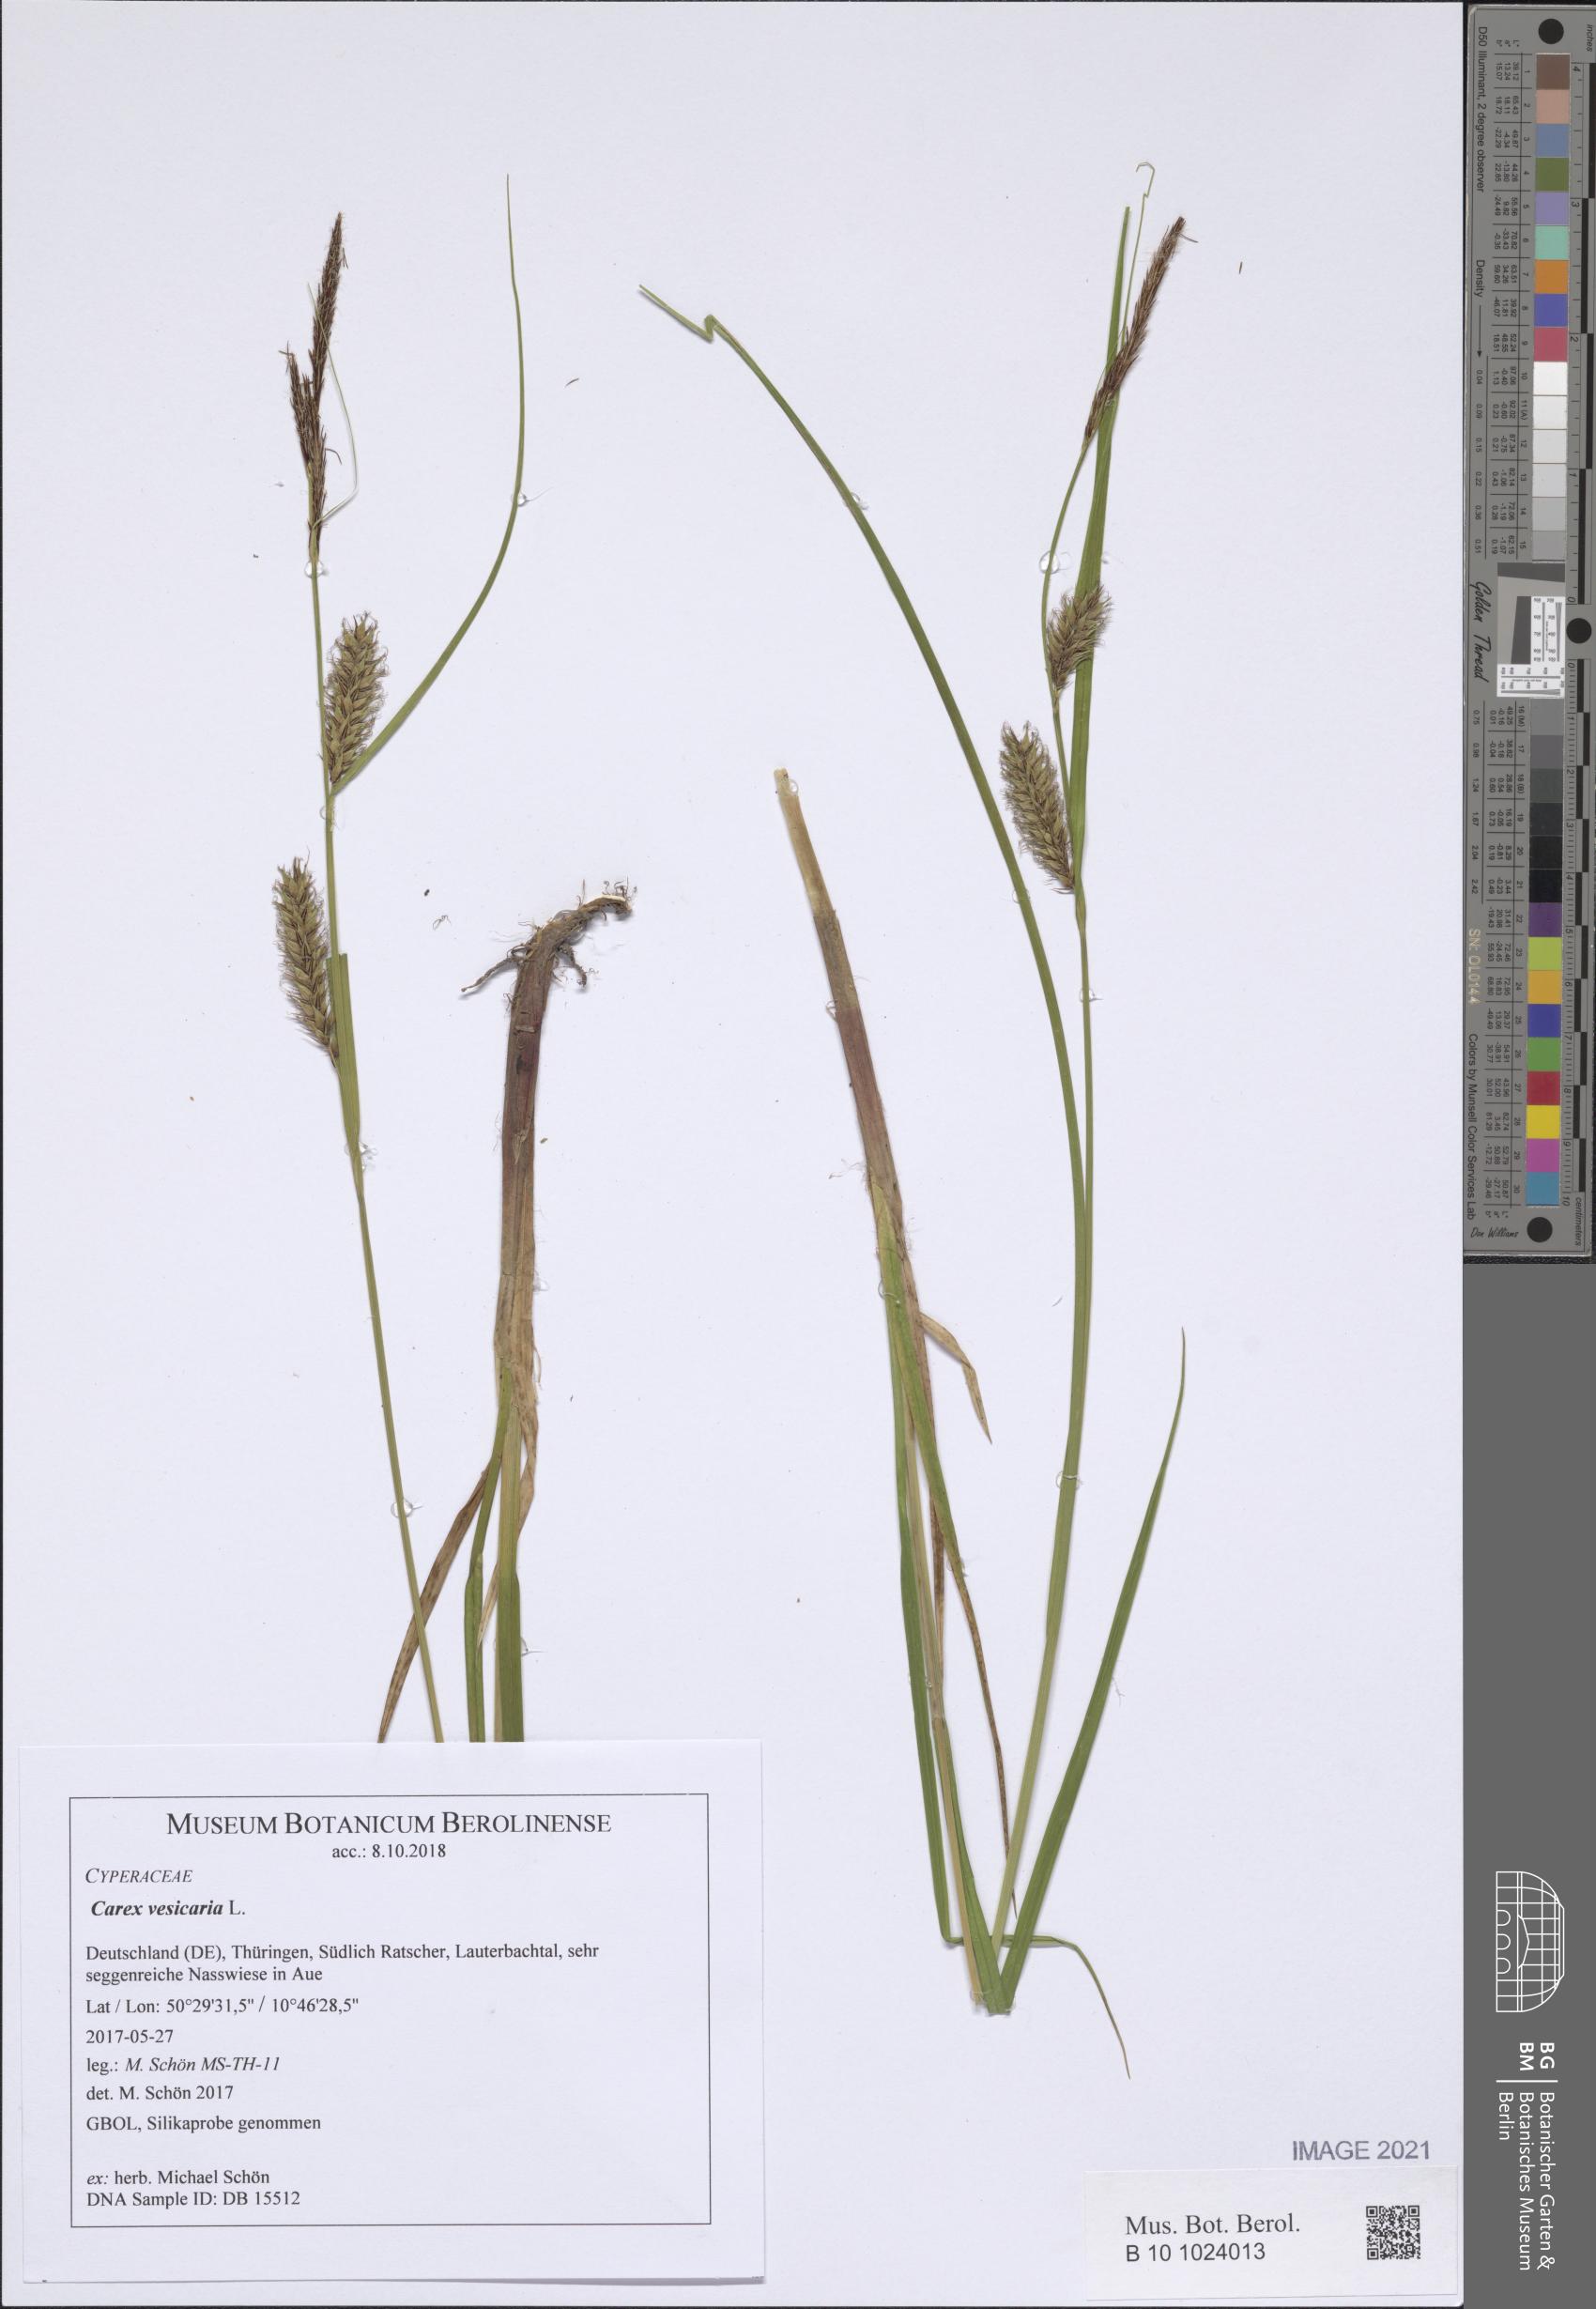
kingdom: Plantae
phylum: Tracheophyta
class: Liliopsida
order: Poales
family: Cyperaceae
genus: Carex
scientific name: Carex vesicaria
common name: Bladder-sedge
